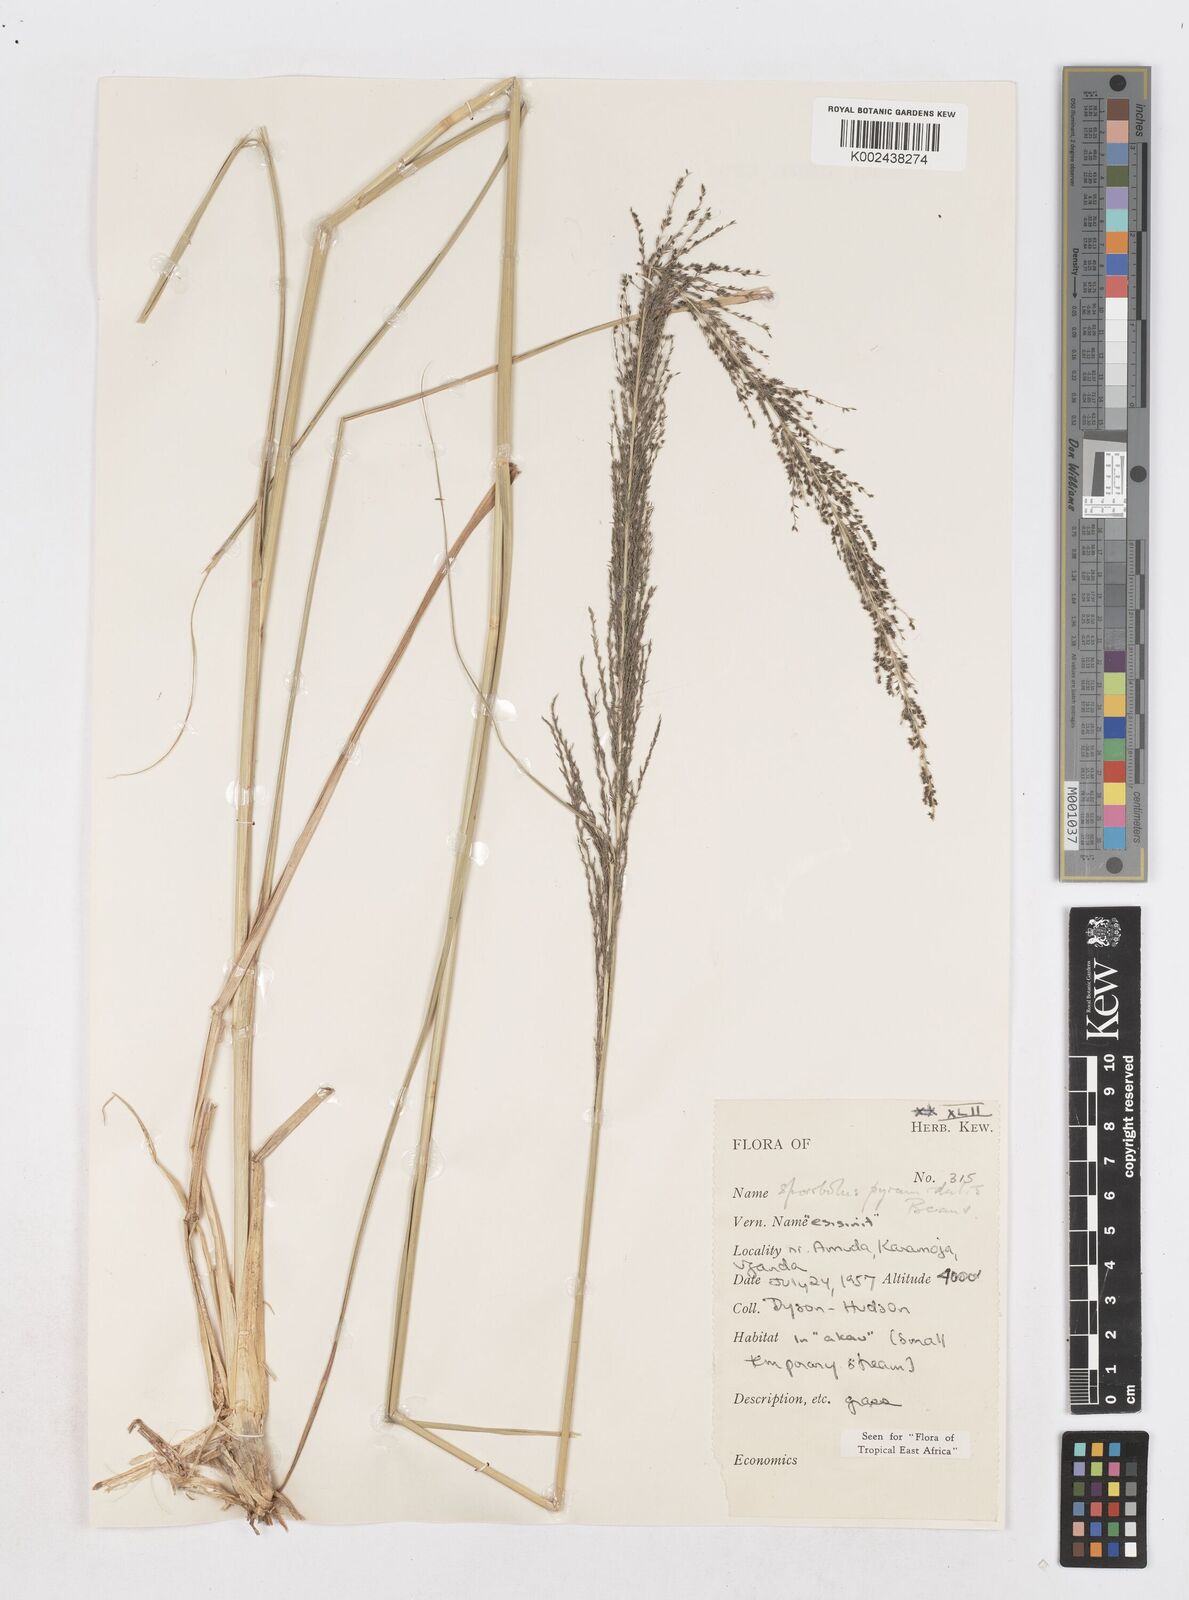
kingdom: Plantae
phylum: Tracheophyta
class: Liliopsida
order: Poales
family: Poaceae
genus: Sporobolus
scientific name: Sporobolus pyramidalis
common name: West indian dropseed
